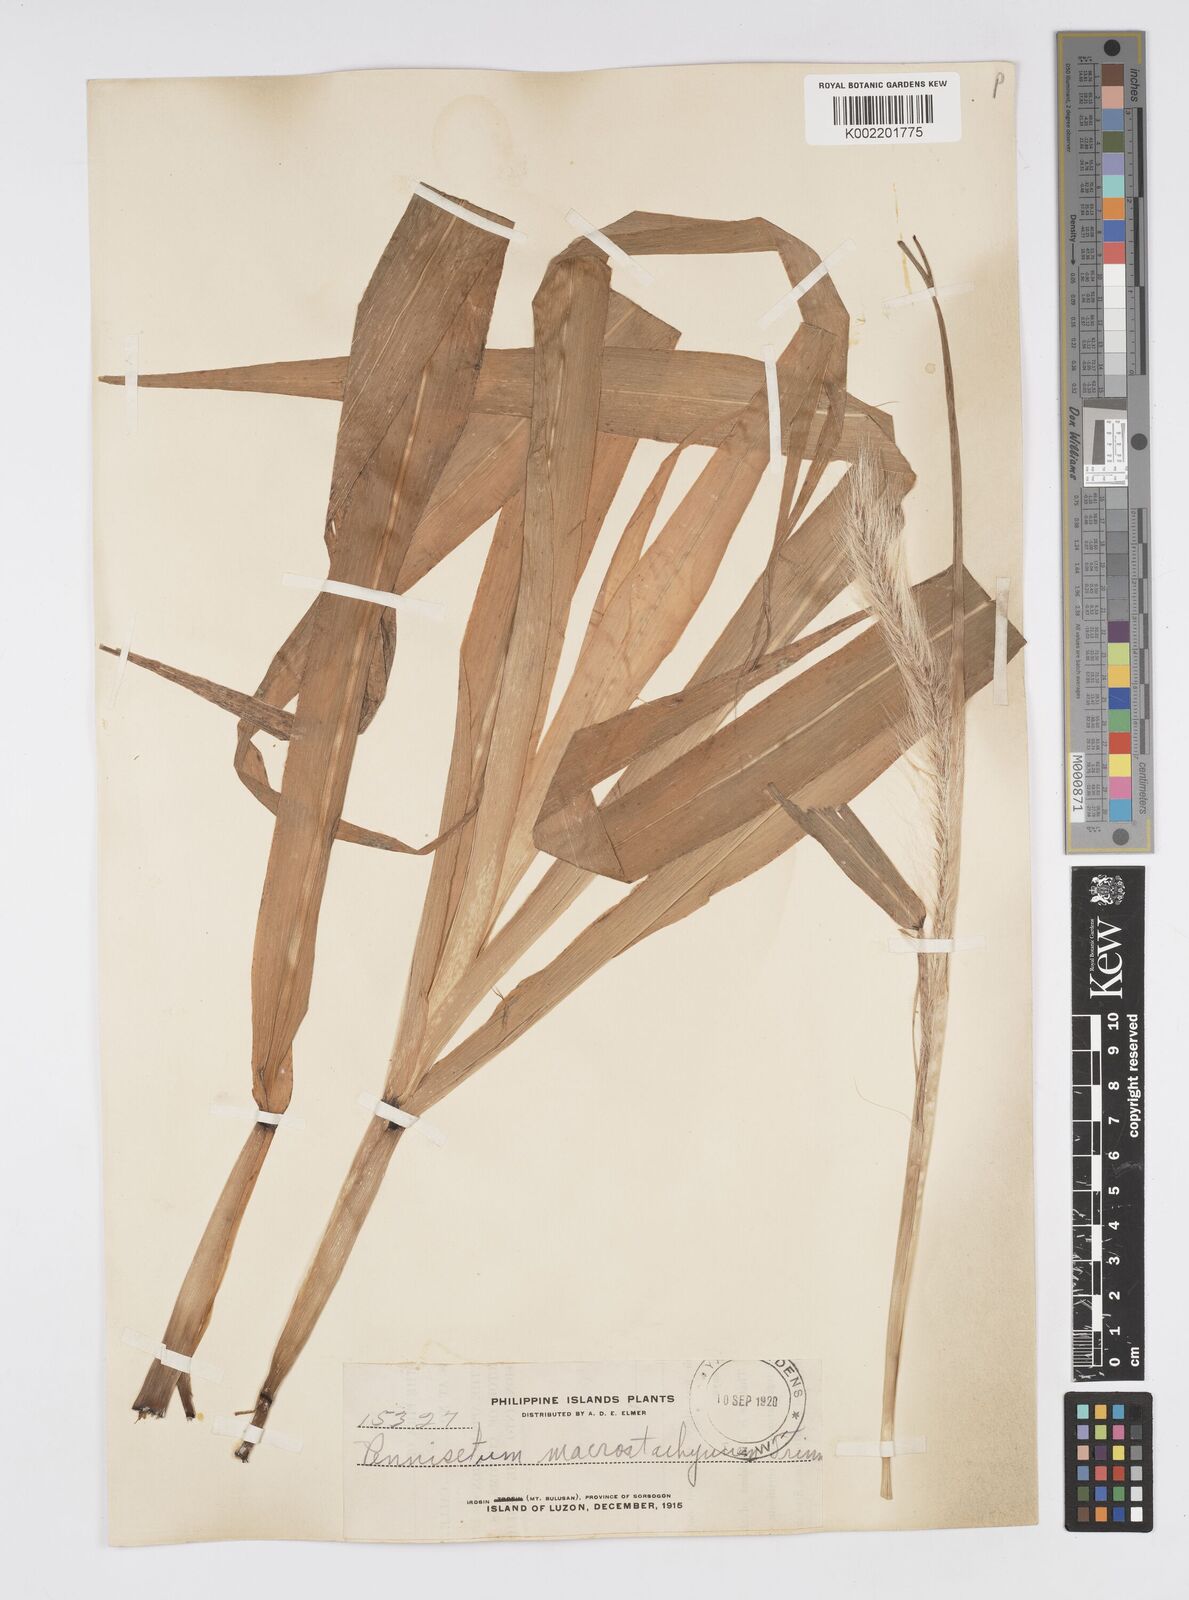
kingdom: Plantae
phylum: Tracheophyta
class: Liliopsida
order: Poales
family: Poaceae
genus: Cenchrus
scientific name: Cenchrus purpureus
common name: Elephant grass
